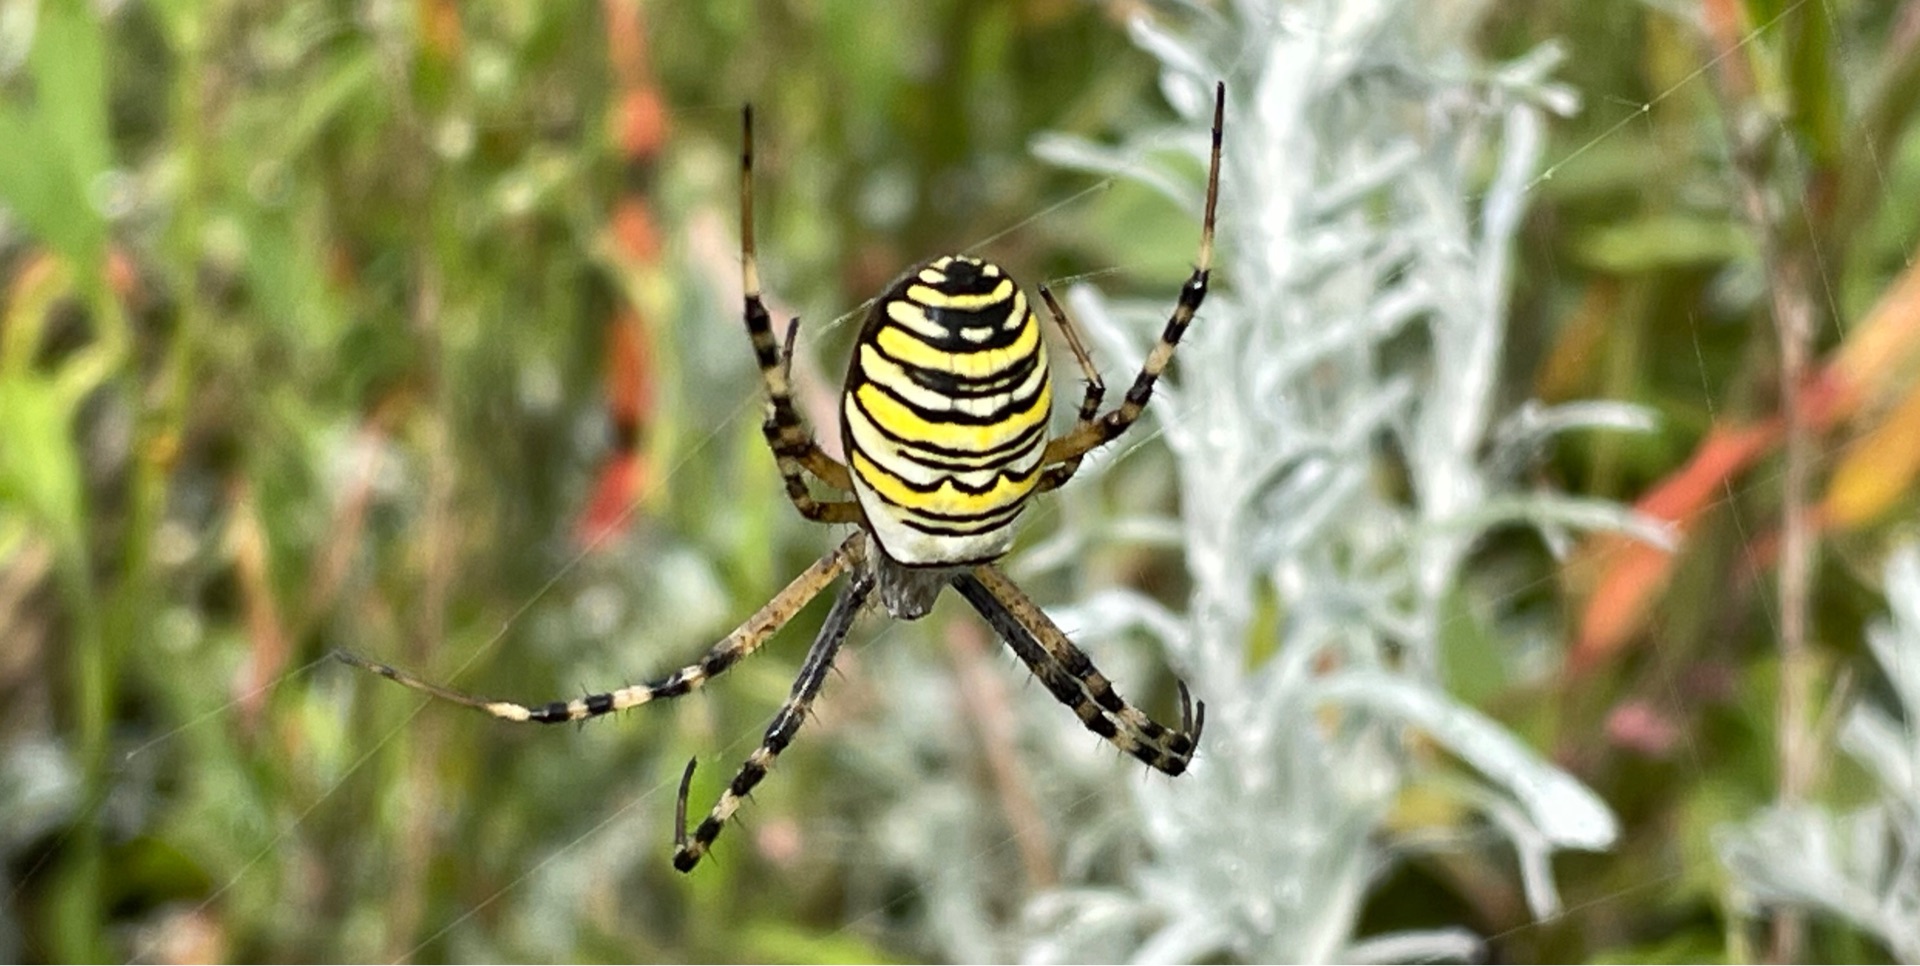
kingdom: Animalia
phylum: Arthropoda
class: Arachnida
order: Araneae
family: Araneidae
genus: Argiope
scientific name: Argiope bruennichi
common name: Hvepseedderkop
